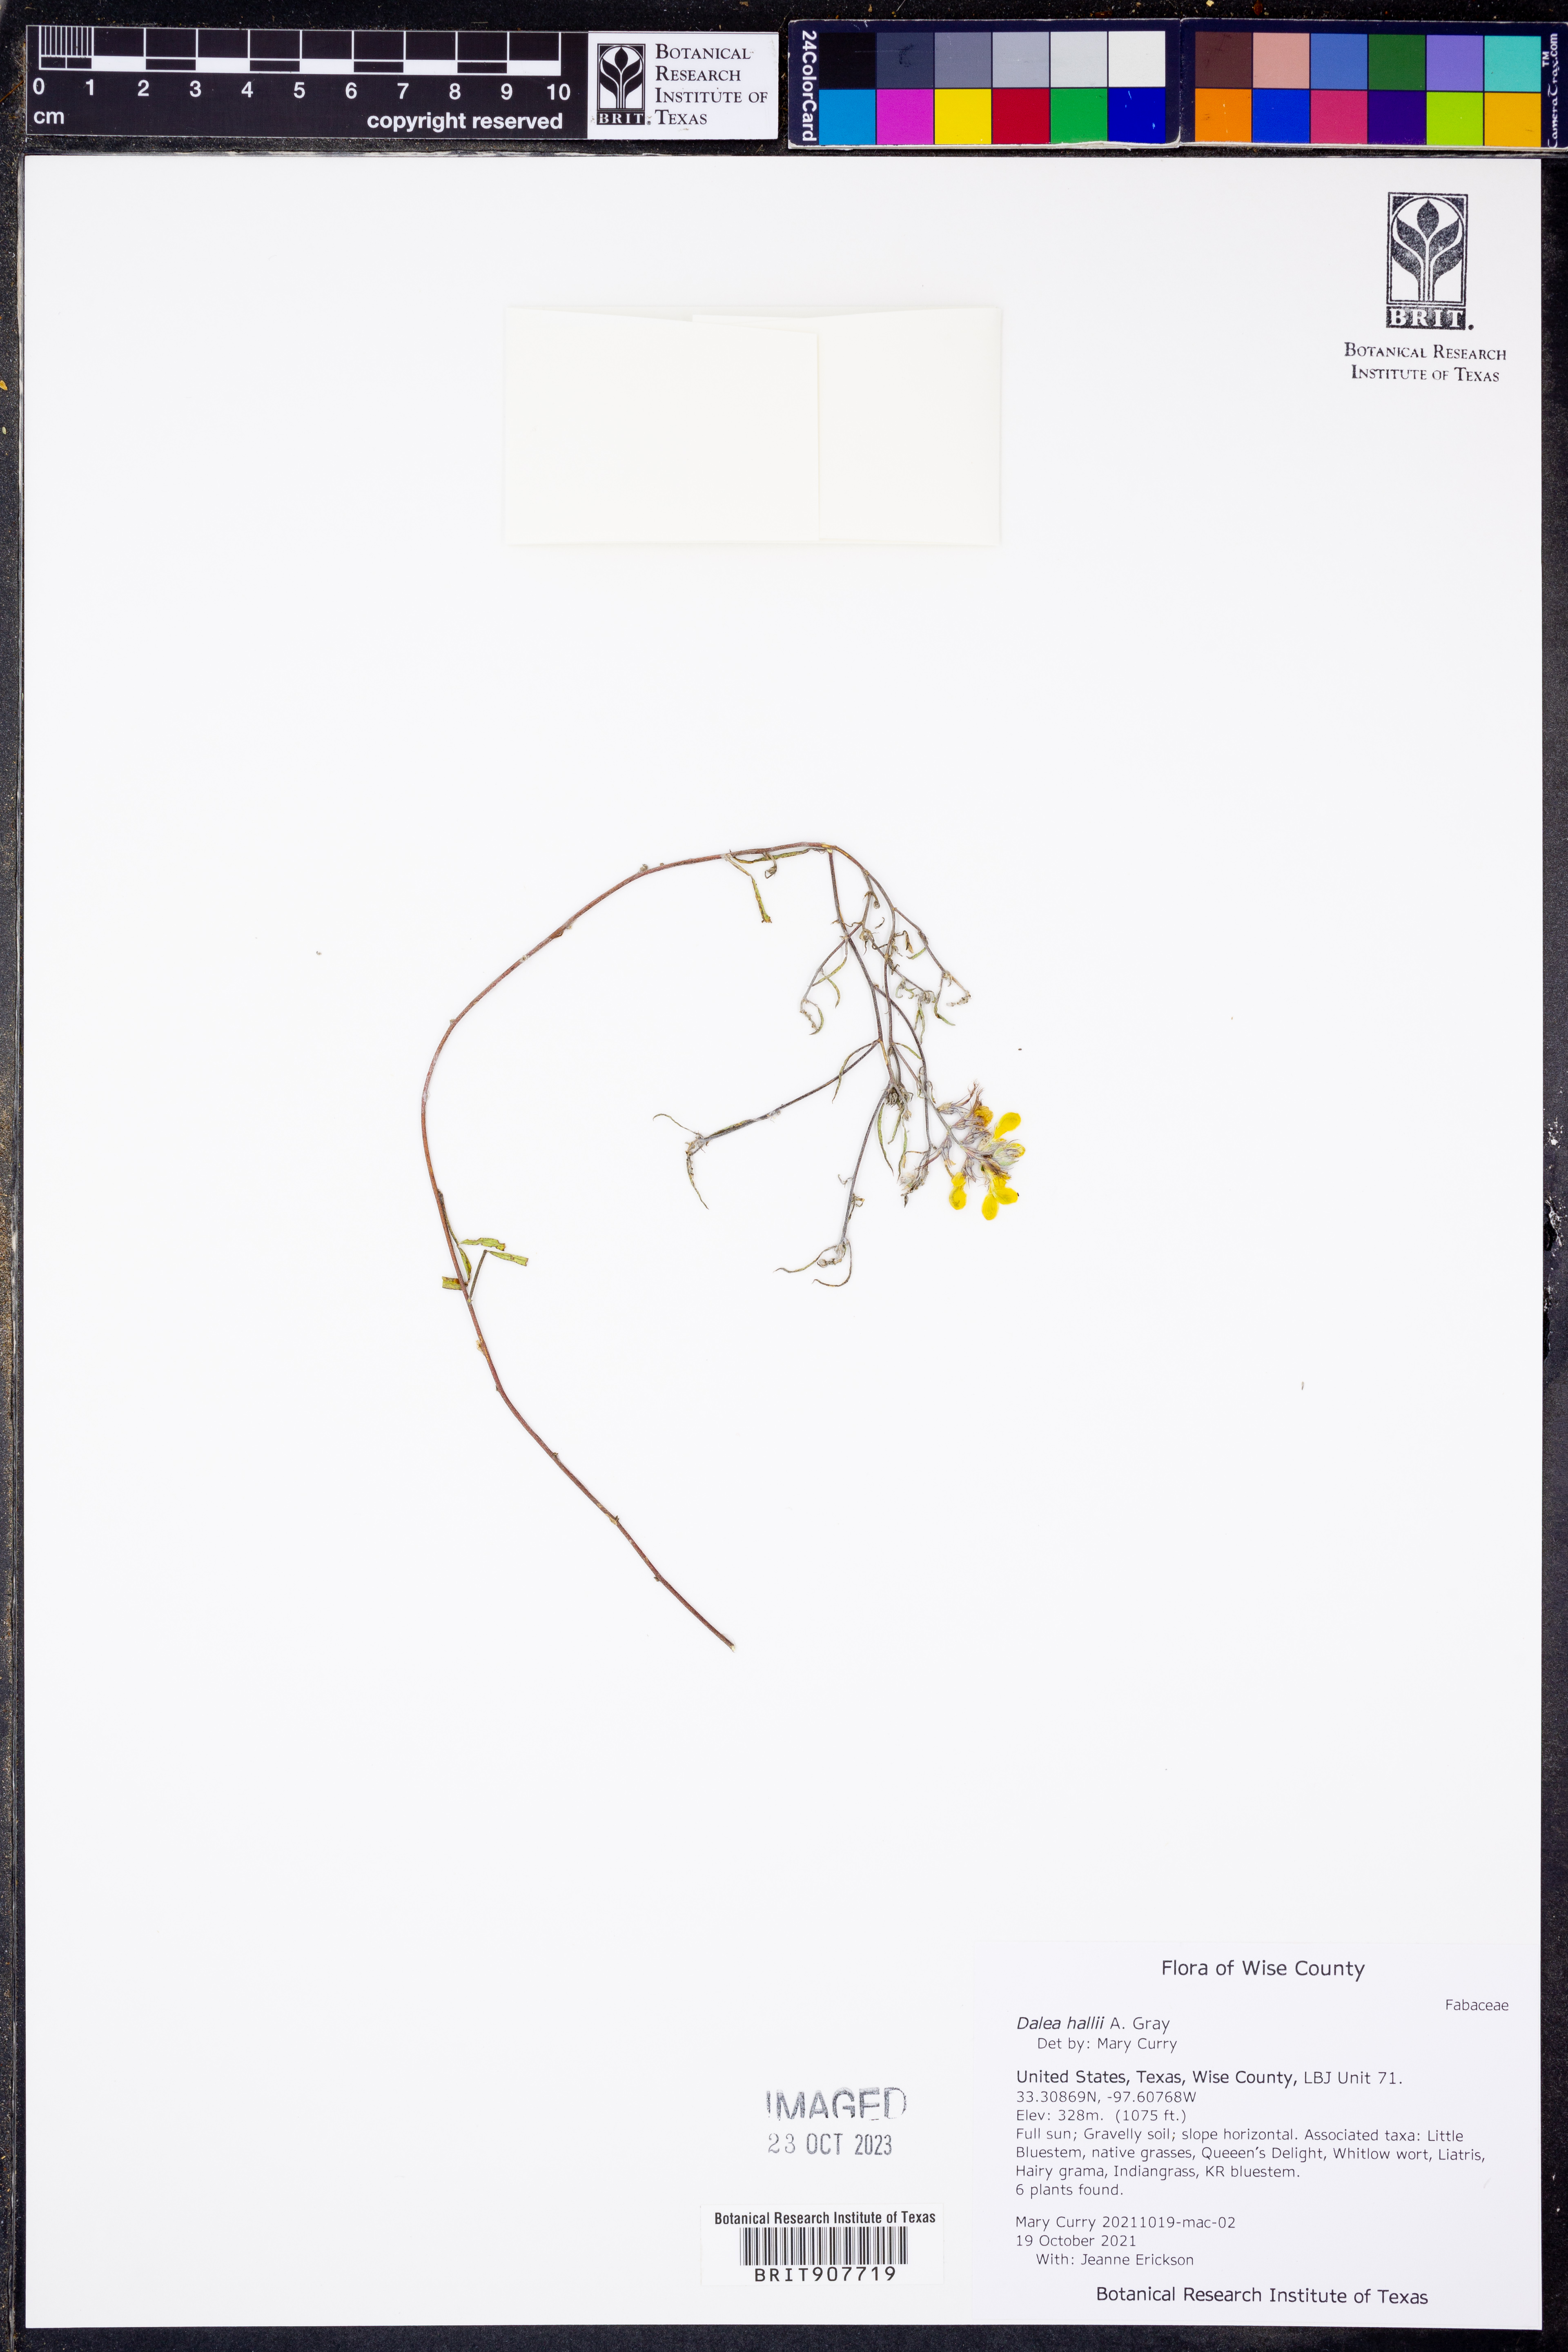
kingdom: Plantae
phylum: Tracheophyta
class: Magnoliopsida
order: Fabales
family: Fabaceae
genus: Dalea
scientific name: Dalea hallii
